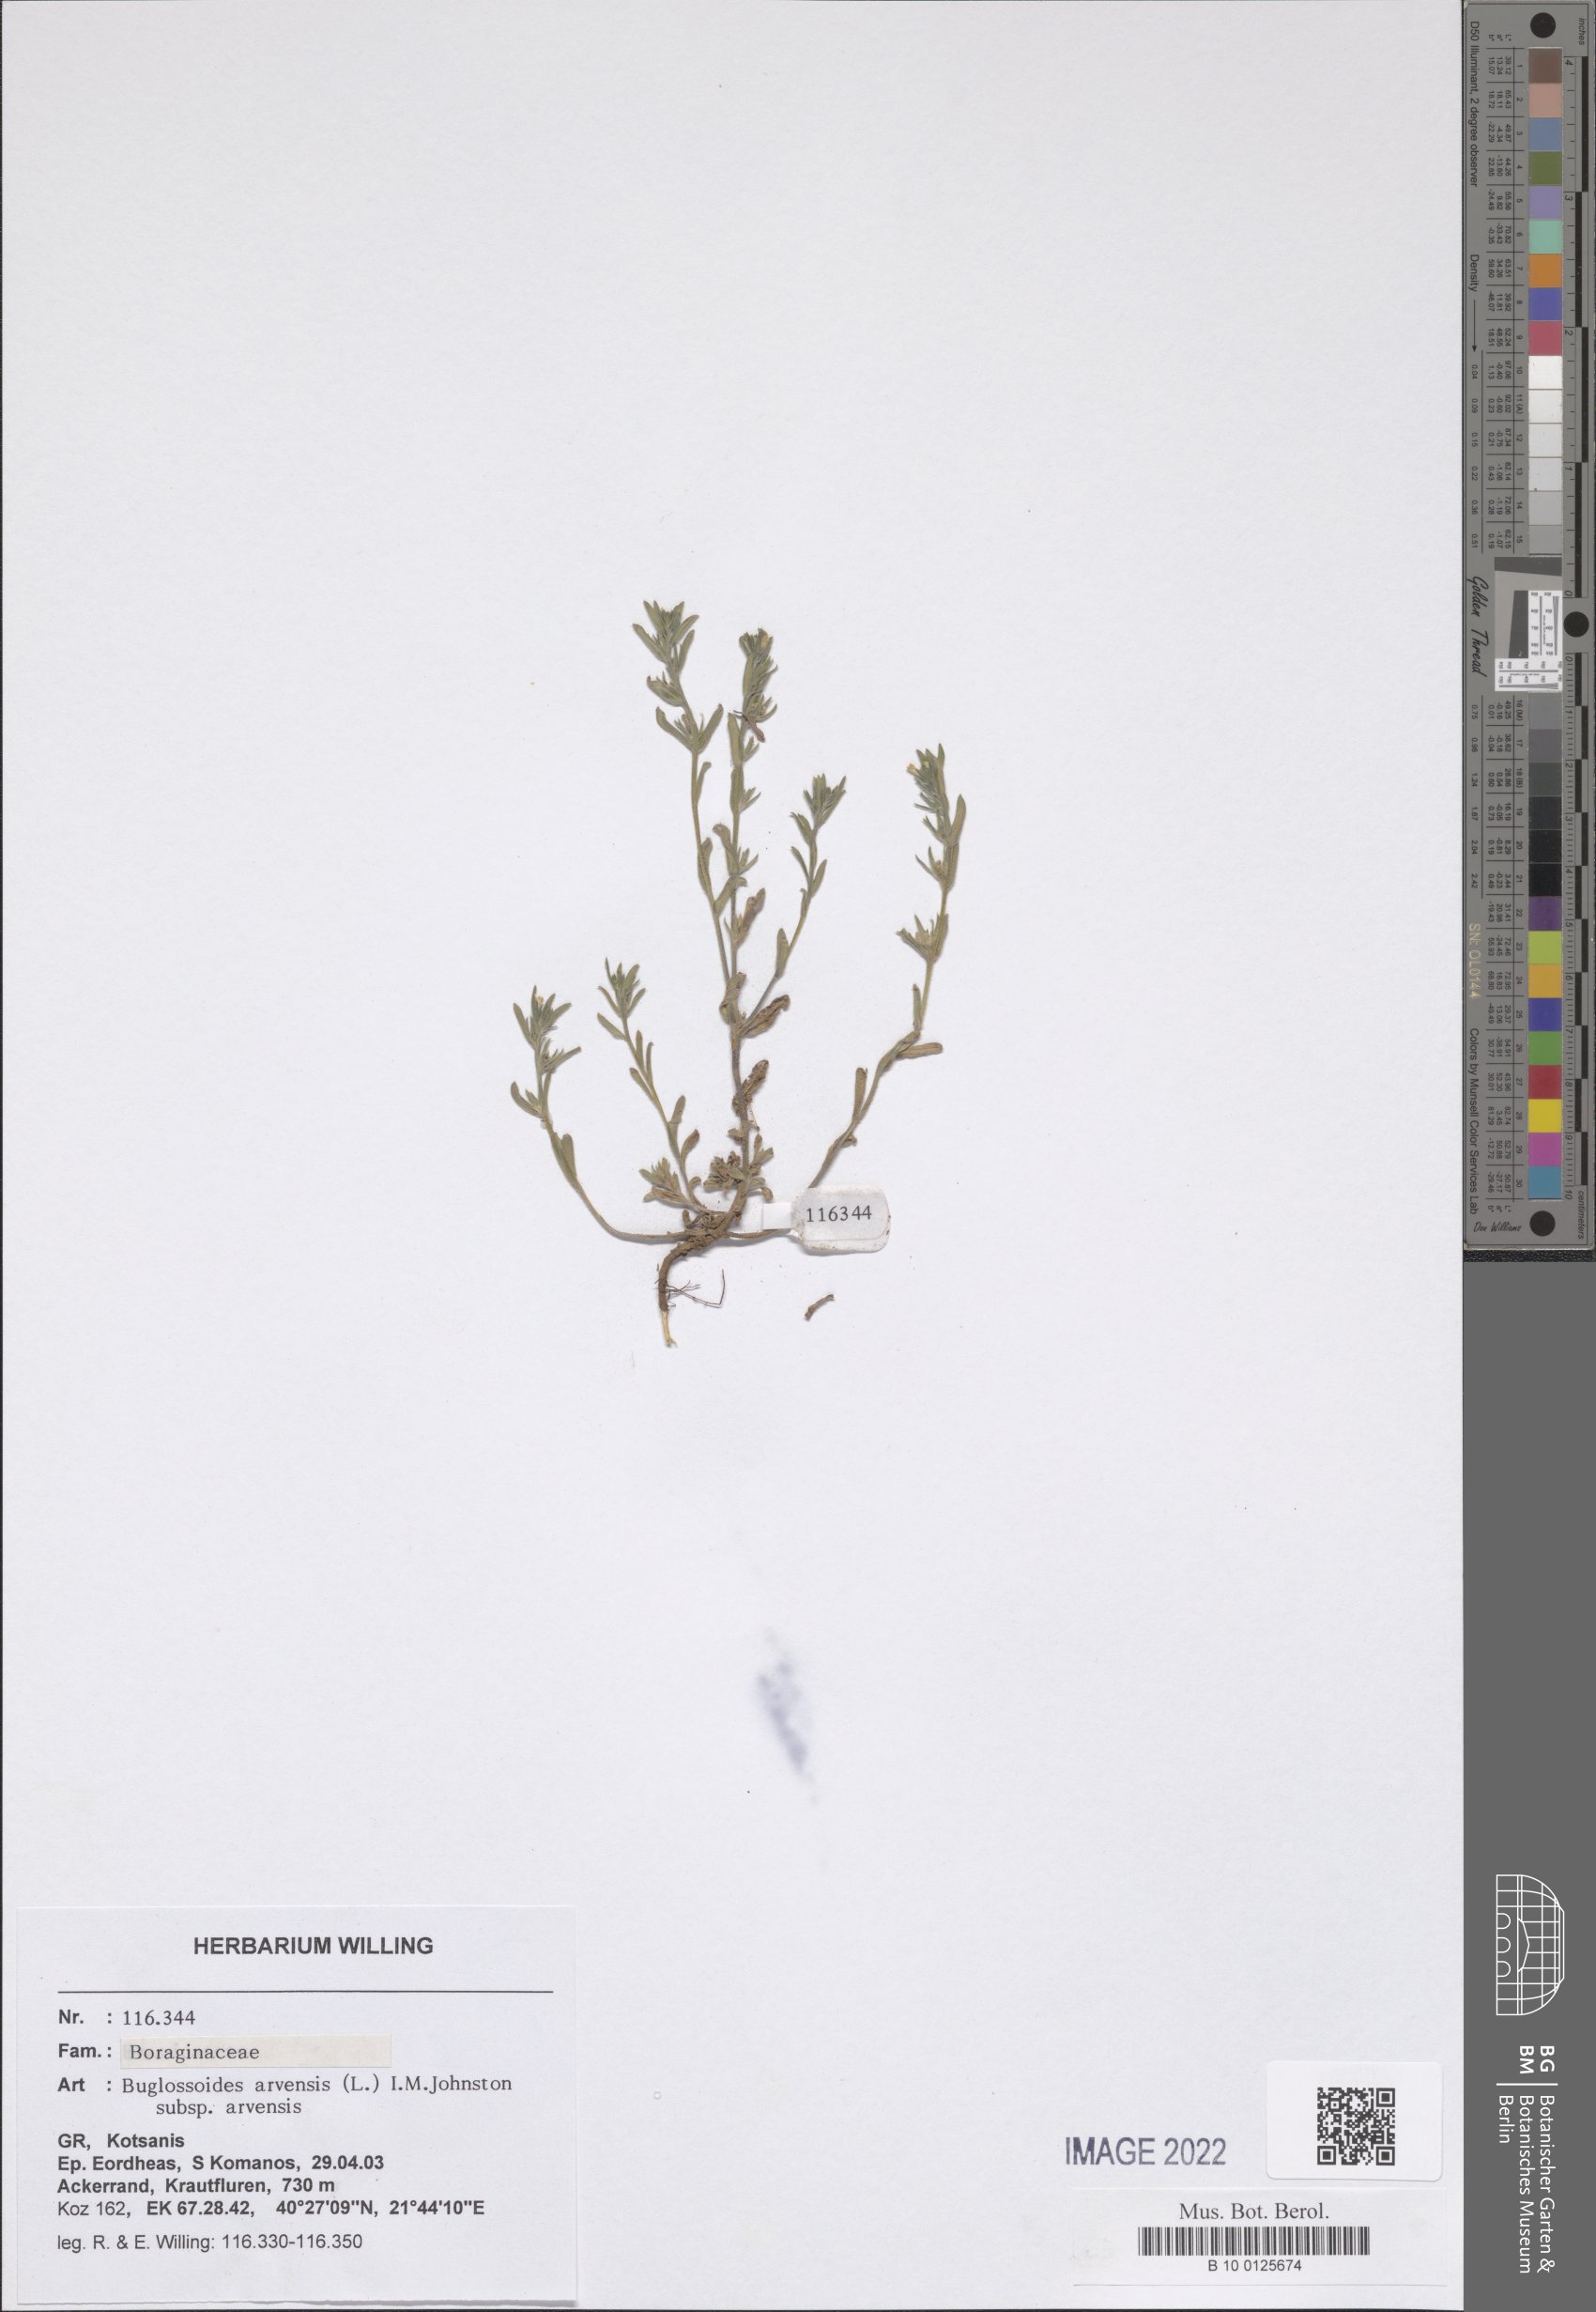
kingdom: Plantae
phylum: Tracheophyta
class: Magnoliopsida
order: Boraginales
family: Boraginaceae
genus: Buglossoides
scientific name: Buglossoides arvensis
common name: Corn gromwell
